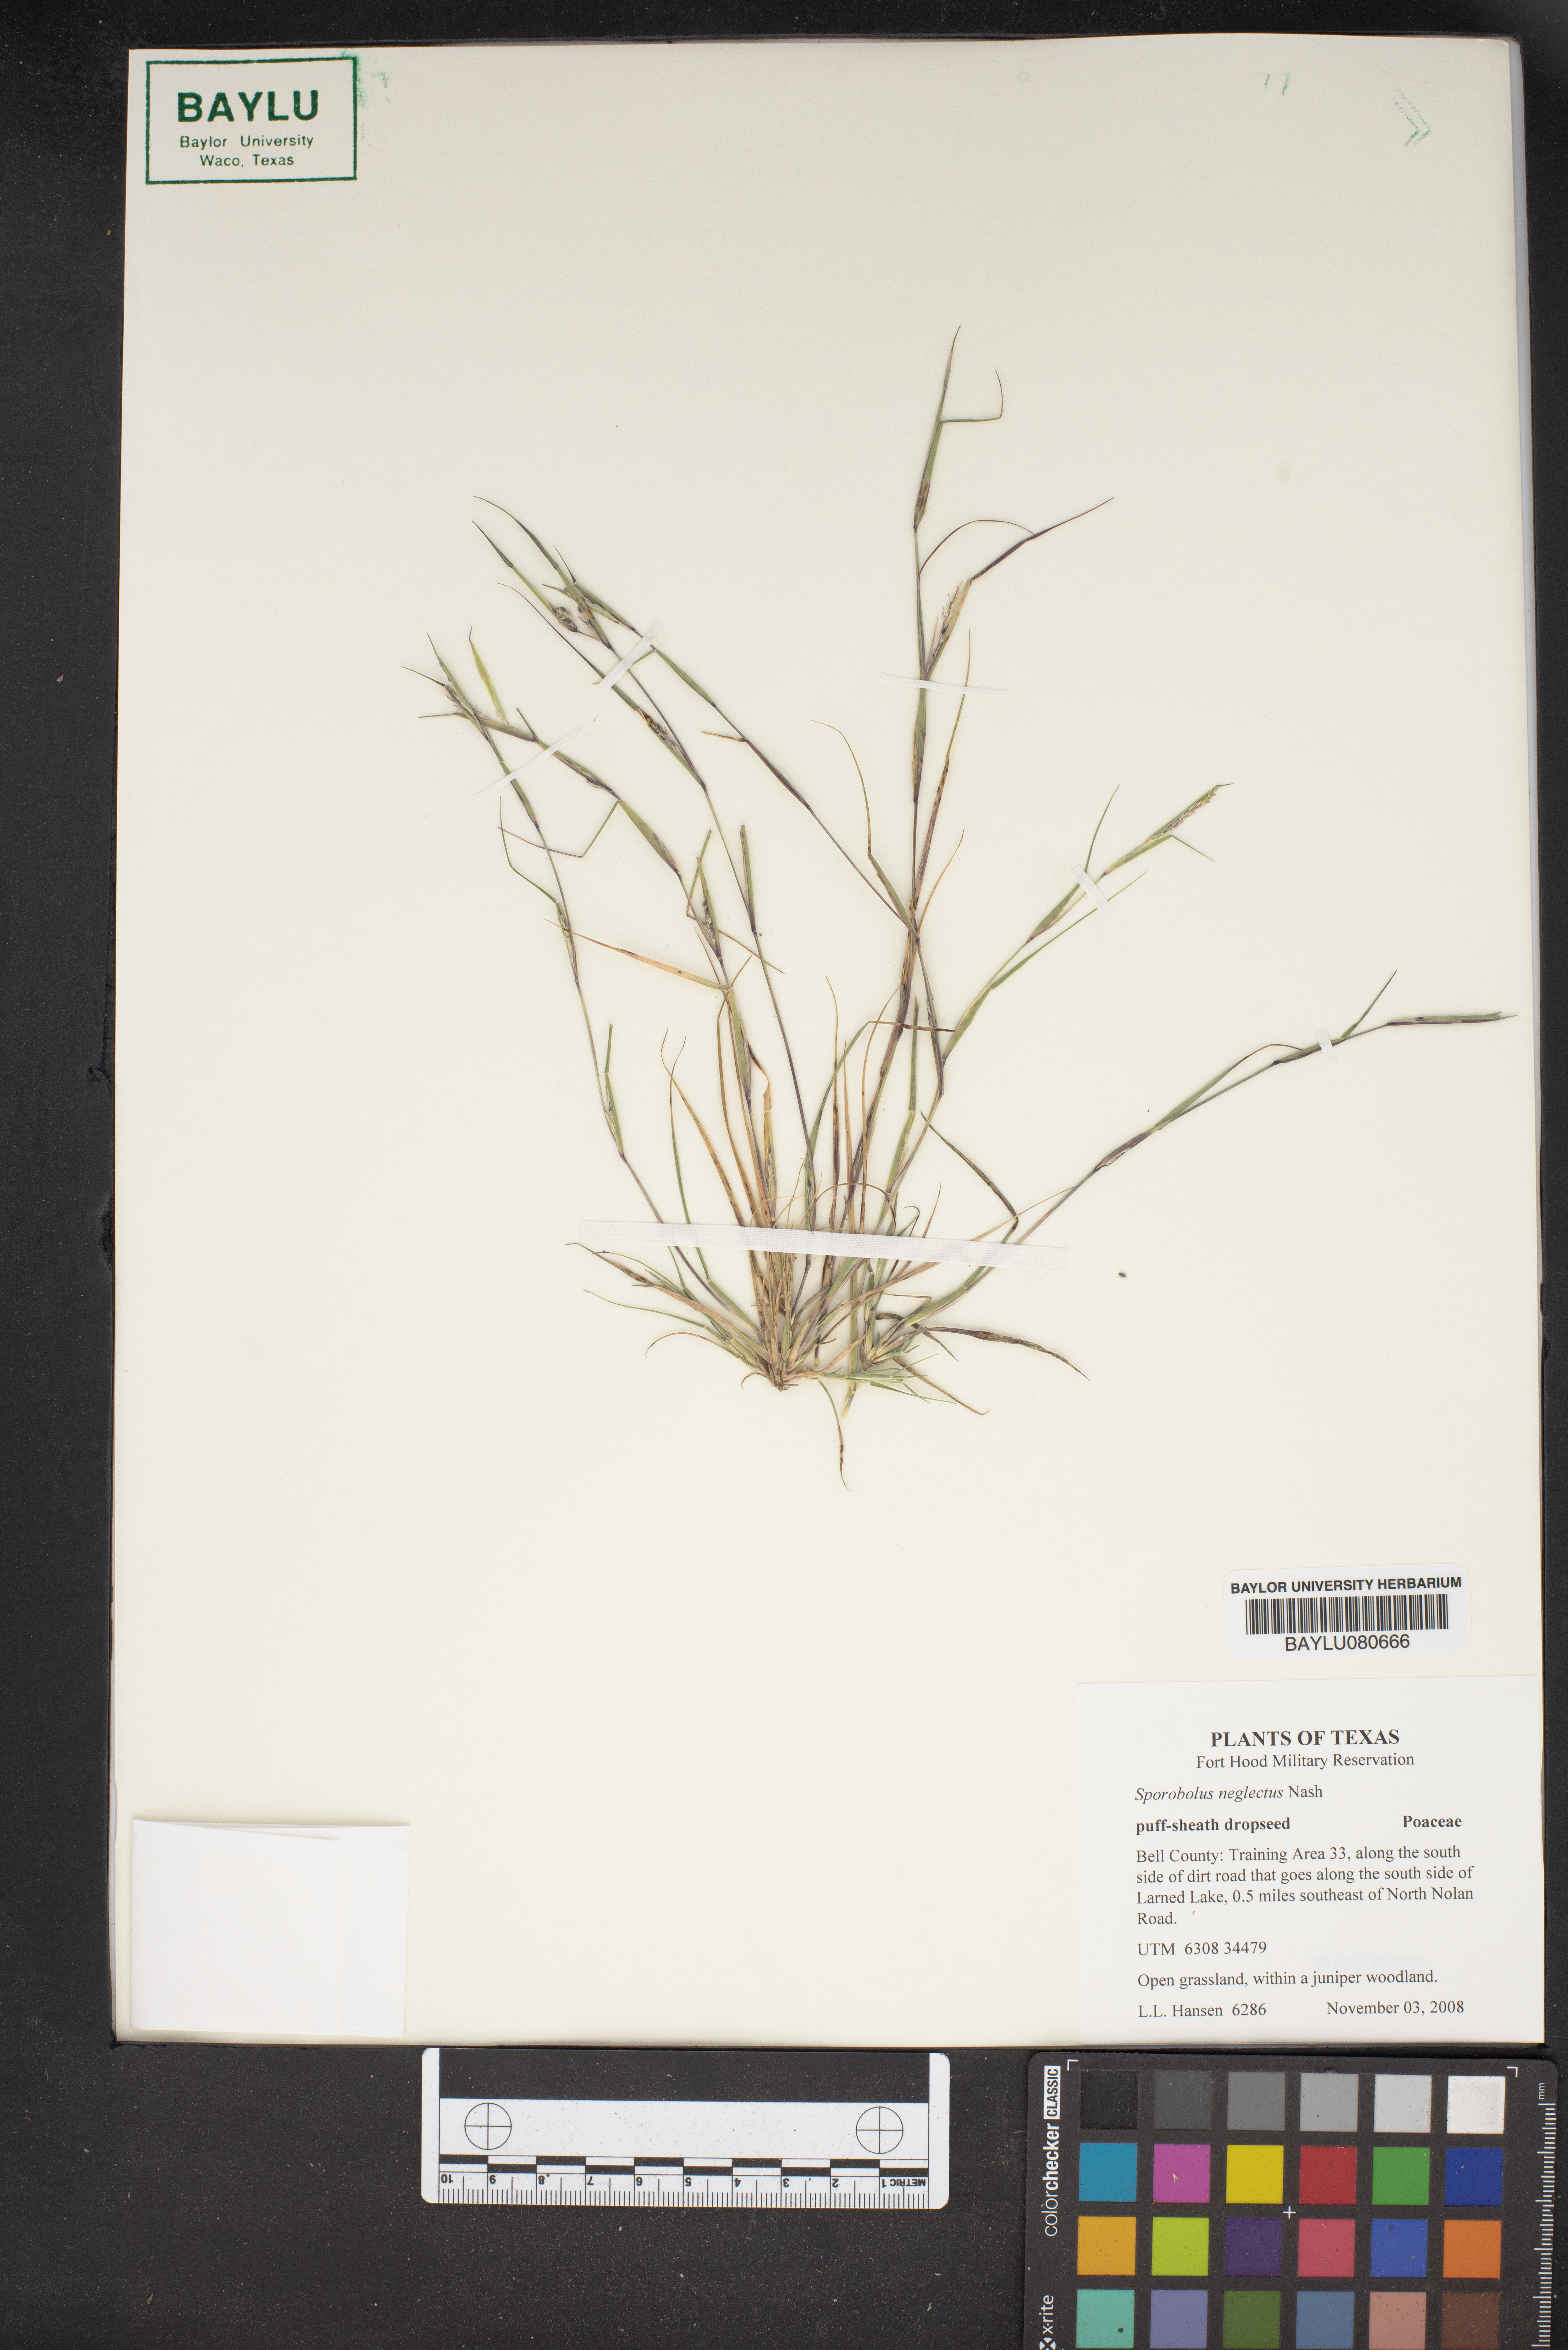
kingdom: Plantae
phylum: Tracheophyta
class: Liliopsida
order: Poales
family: Poaceae
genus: Sporobolus
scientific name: Sporobolus neglectus
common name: Annual dropseed
